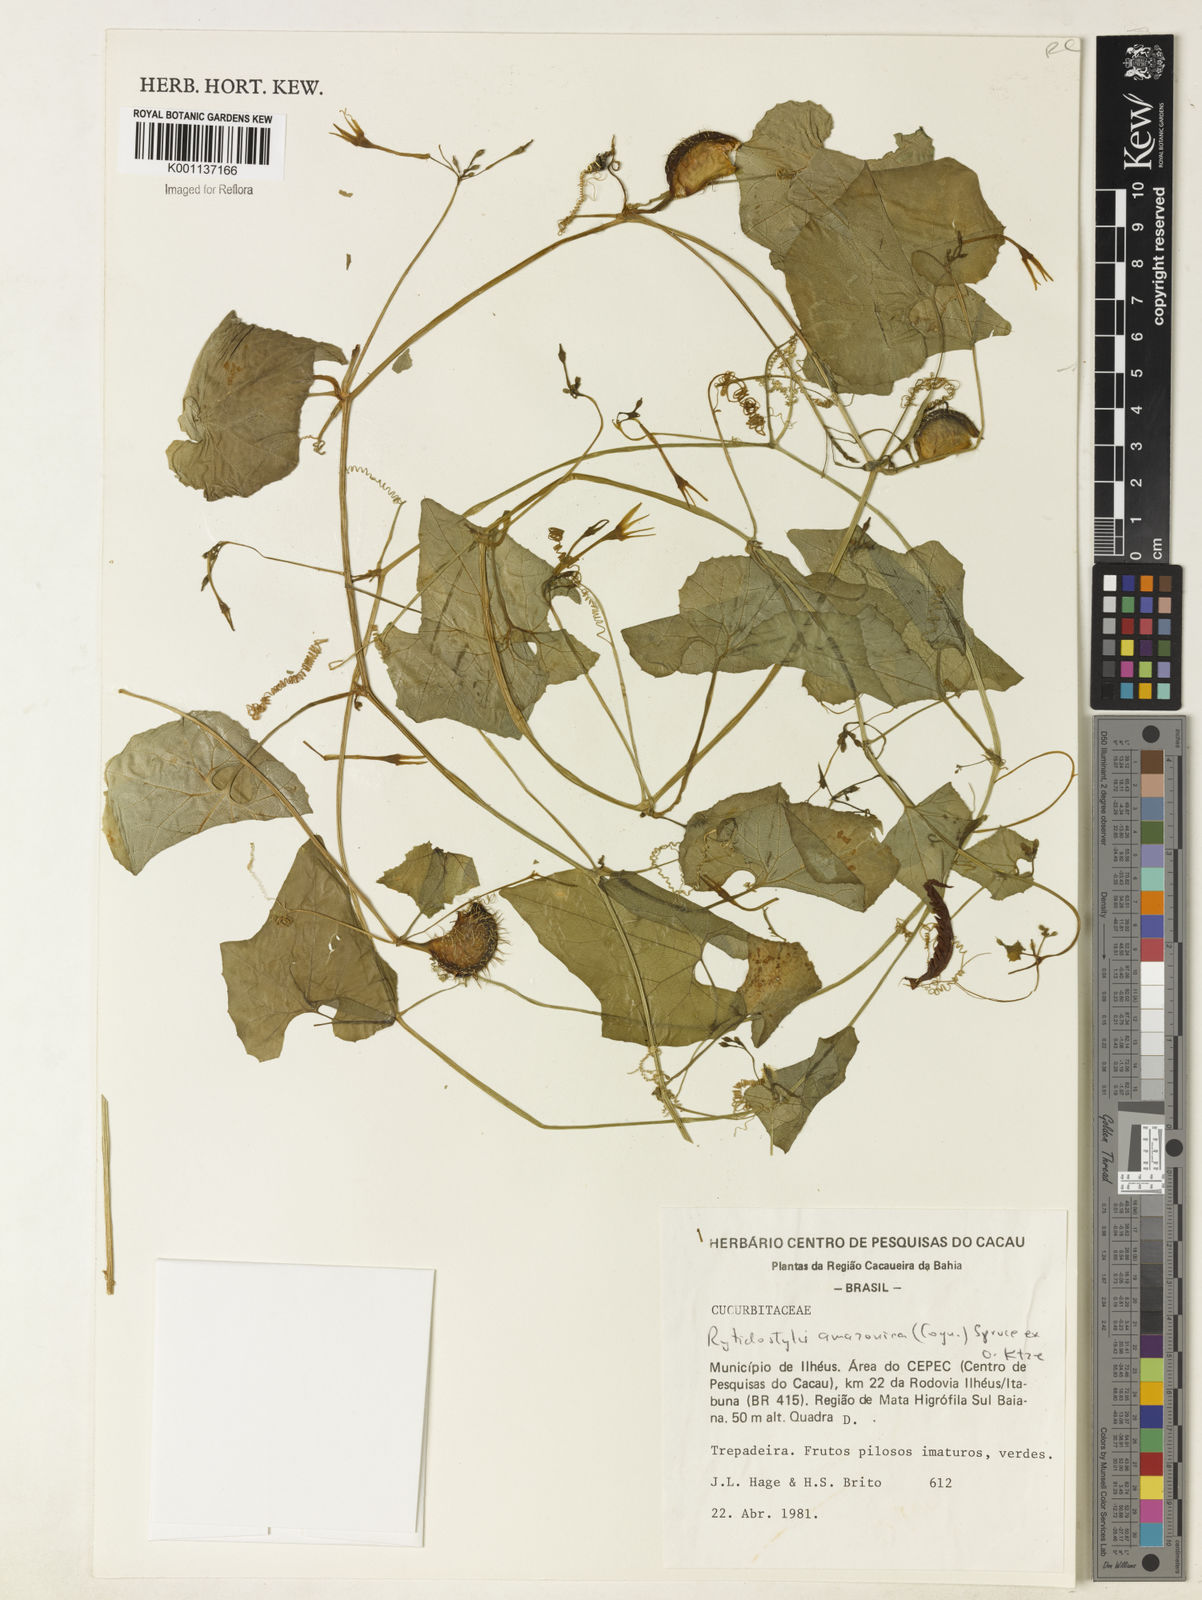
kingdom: Plantae
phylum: Tracheophyta
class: Magnoliopsida
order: Cucurbitales
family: Cucurbitaceae
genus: Cyclanthera
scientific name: Cyclanthera carthagenensis
